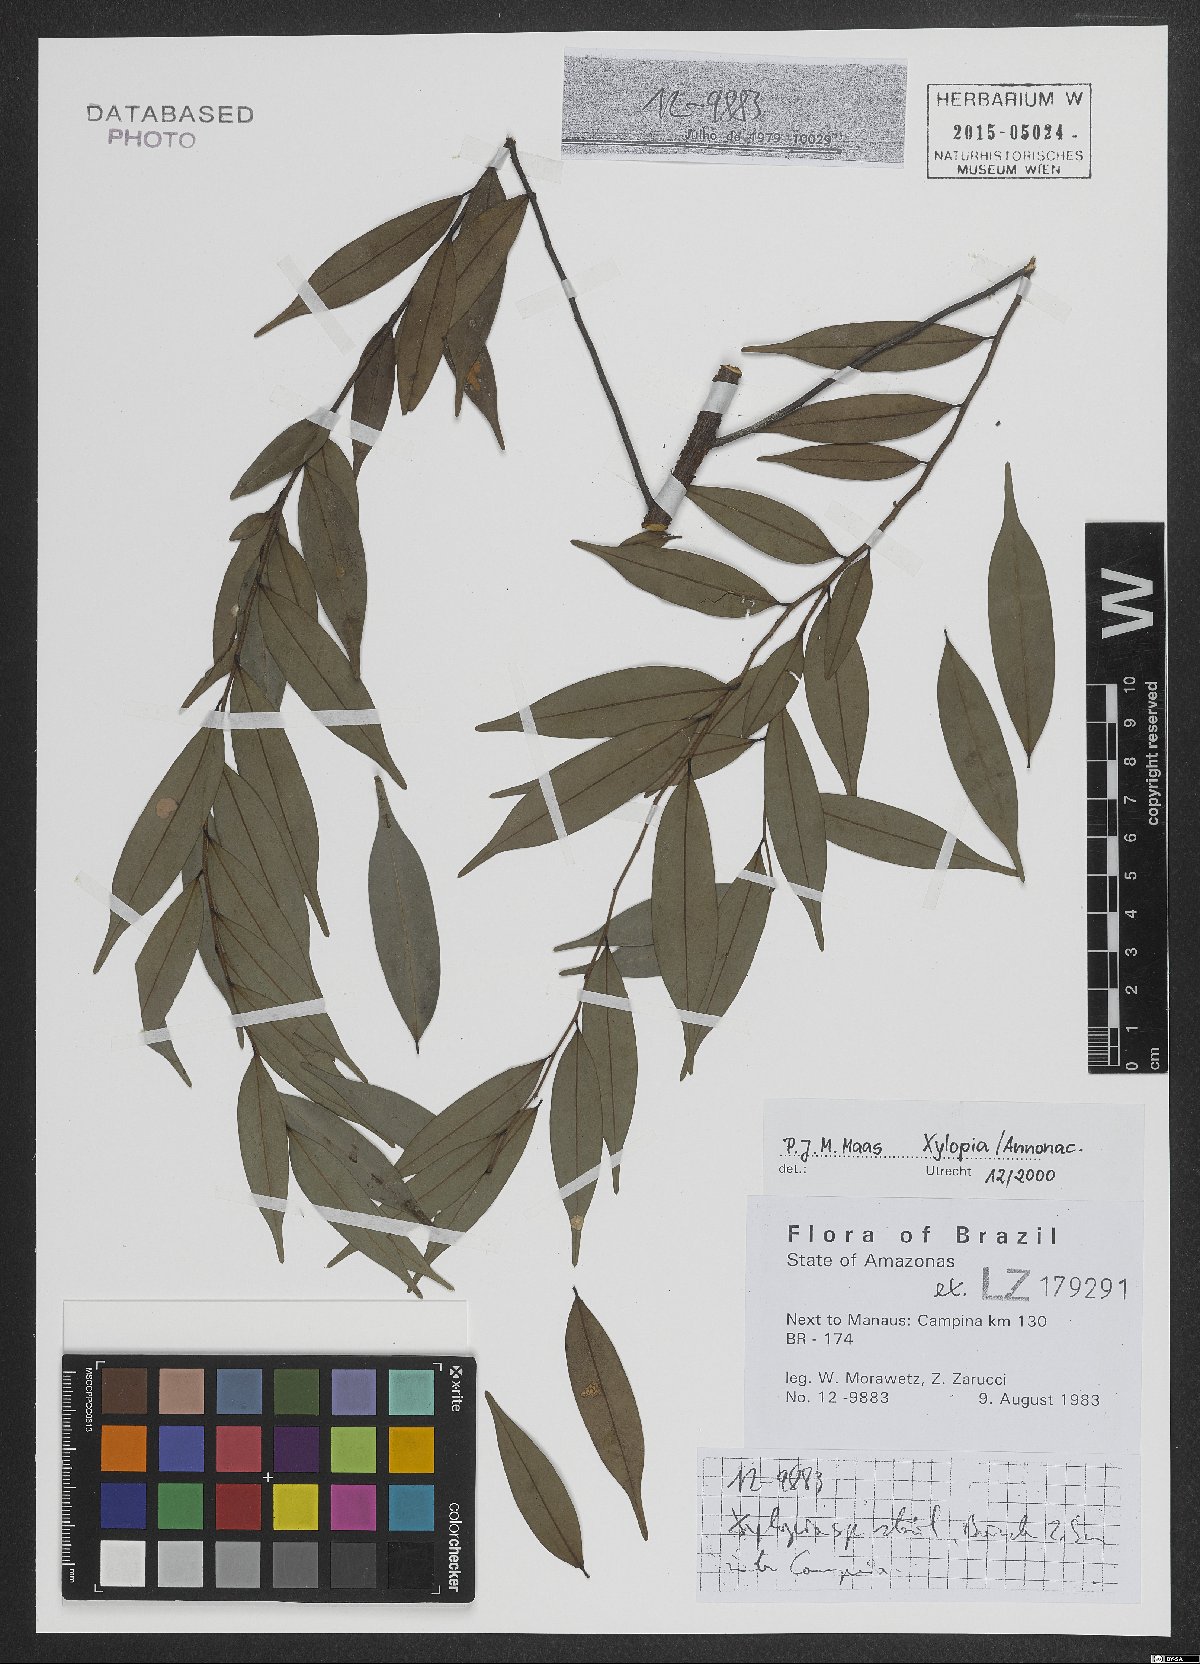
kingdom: Plantae
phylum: Tracheophyta
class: Magnoliopsida
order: Magnoliales
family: Annonaceae
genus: Xylopia
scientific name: Xylopia
